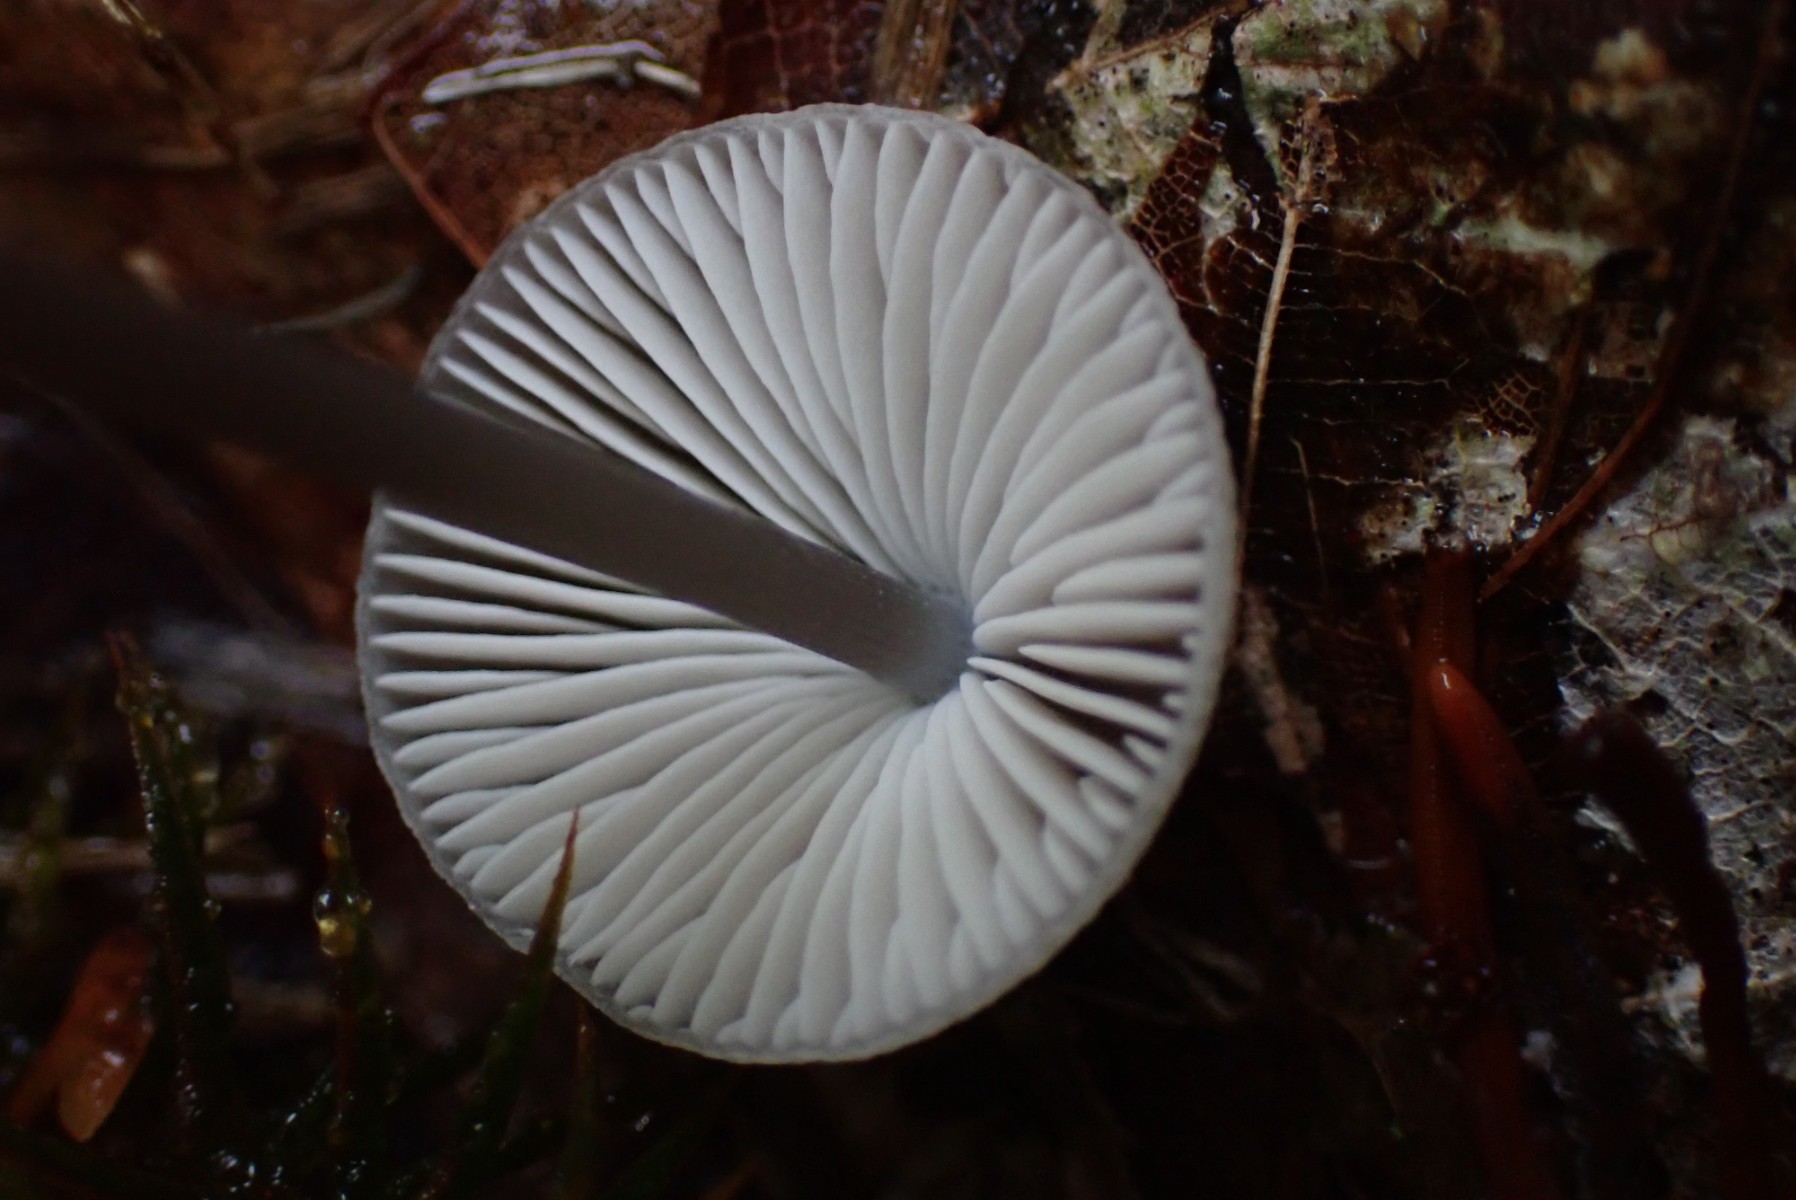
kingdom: Fungi
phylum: Basidiomycota
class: Agaricomycetes
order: Agaricales
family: Mycenaceae
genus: Mycena
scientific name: Mycena polygramma
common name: mangestribet huesvamp
